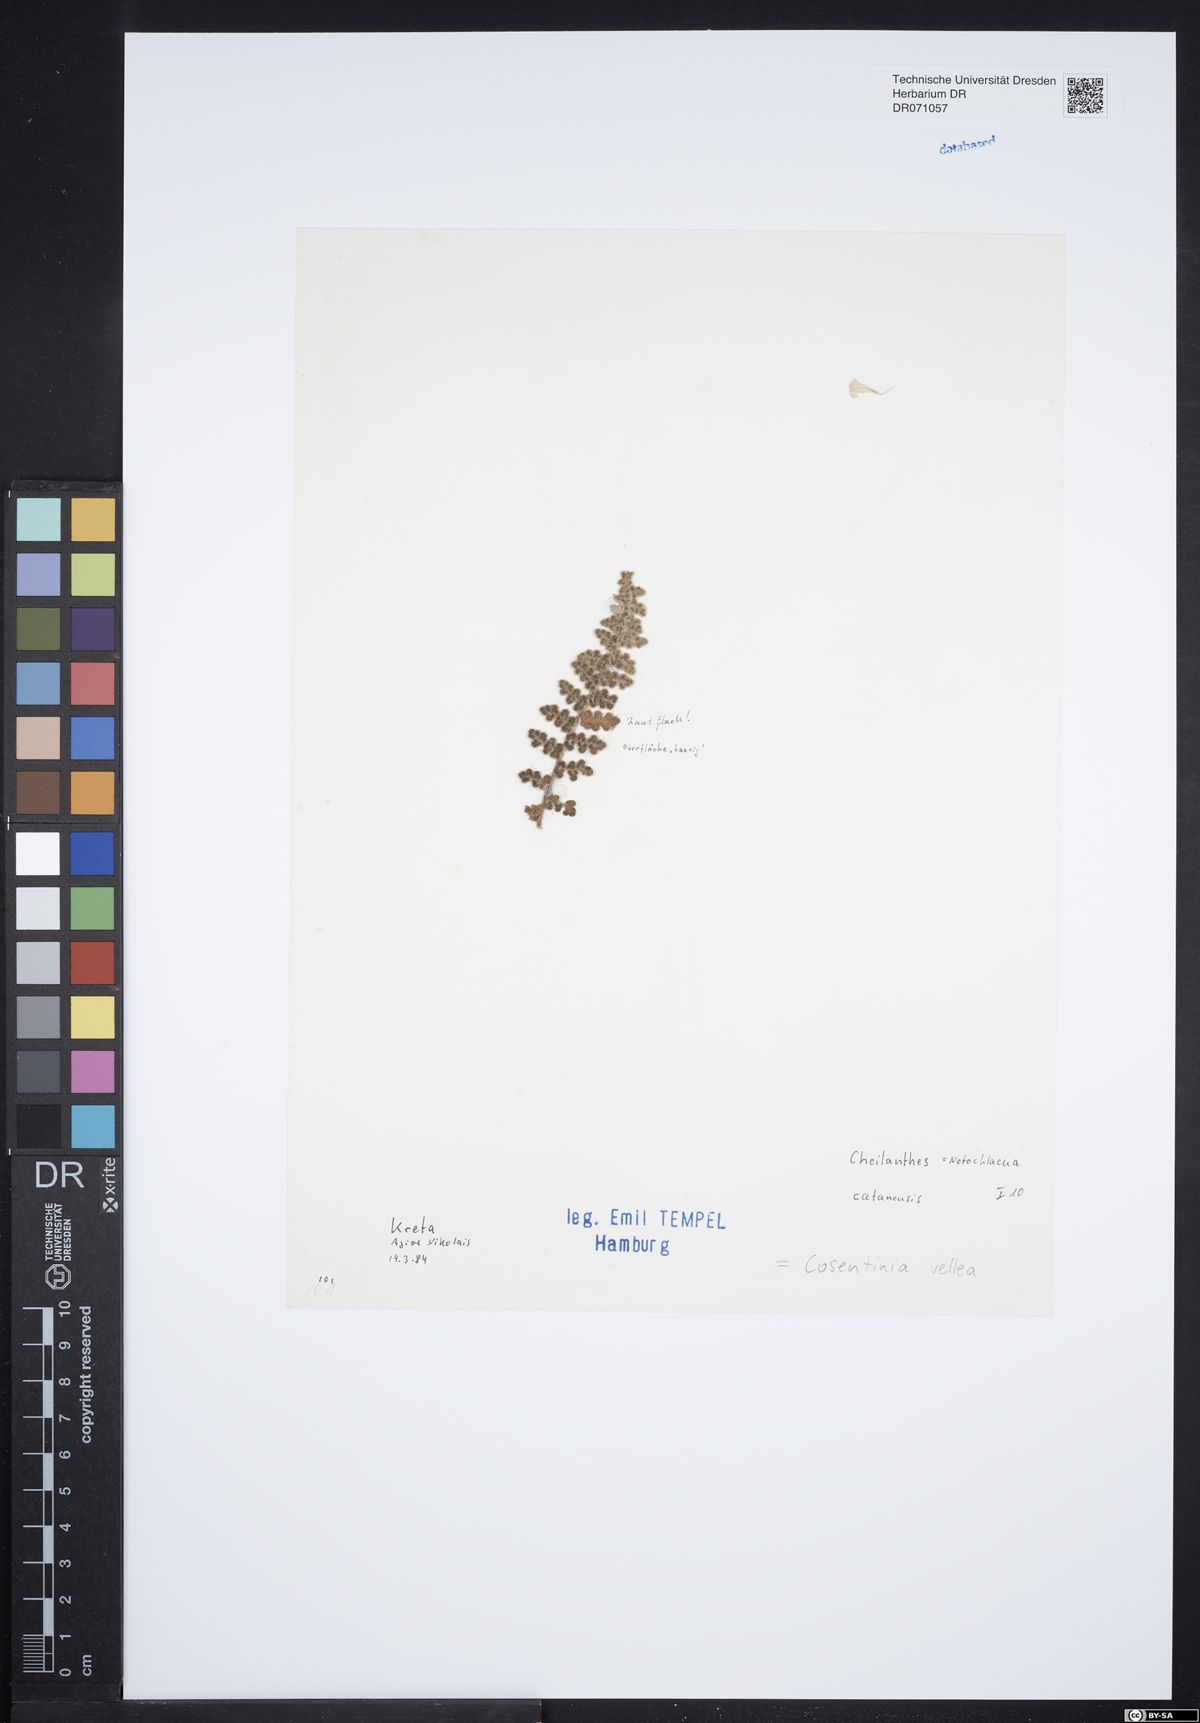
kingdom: Plantae
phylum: Tracheophyta
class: Polypodiopsida
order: Polypodiales
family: Pteridaceae
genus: Cosentinia
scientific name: Cosentinia vellea
